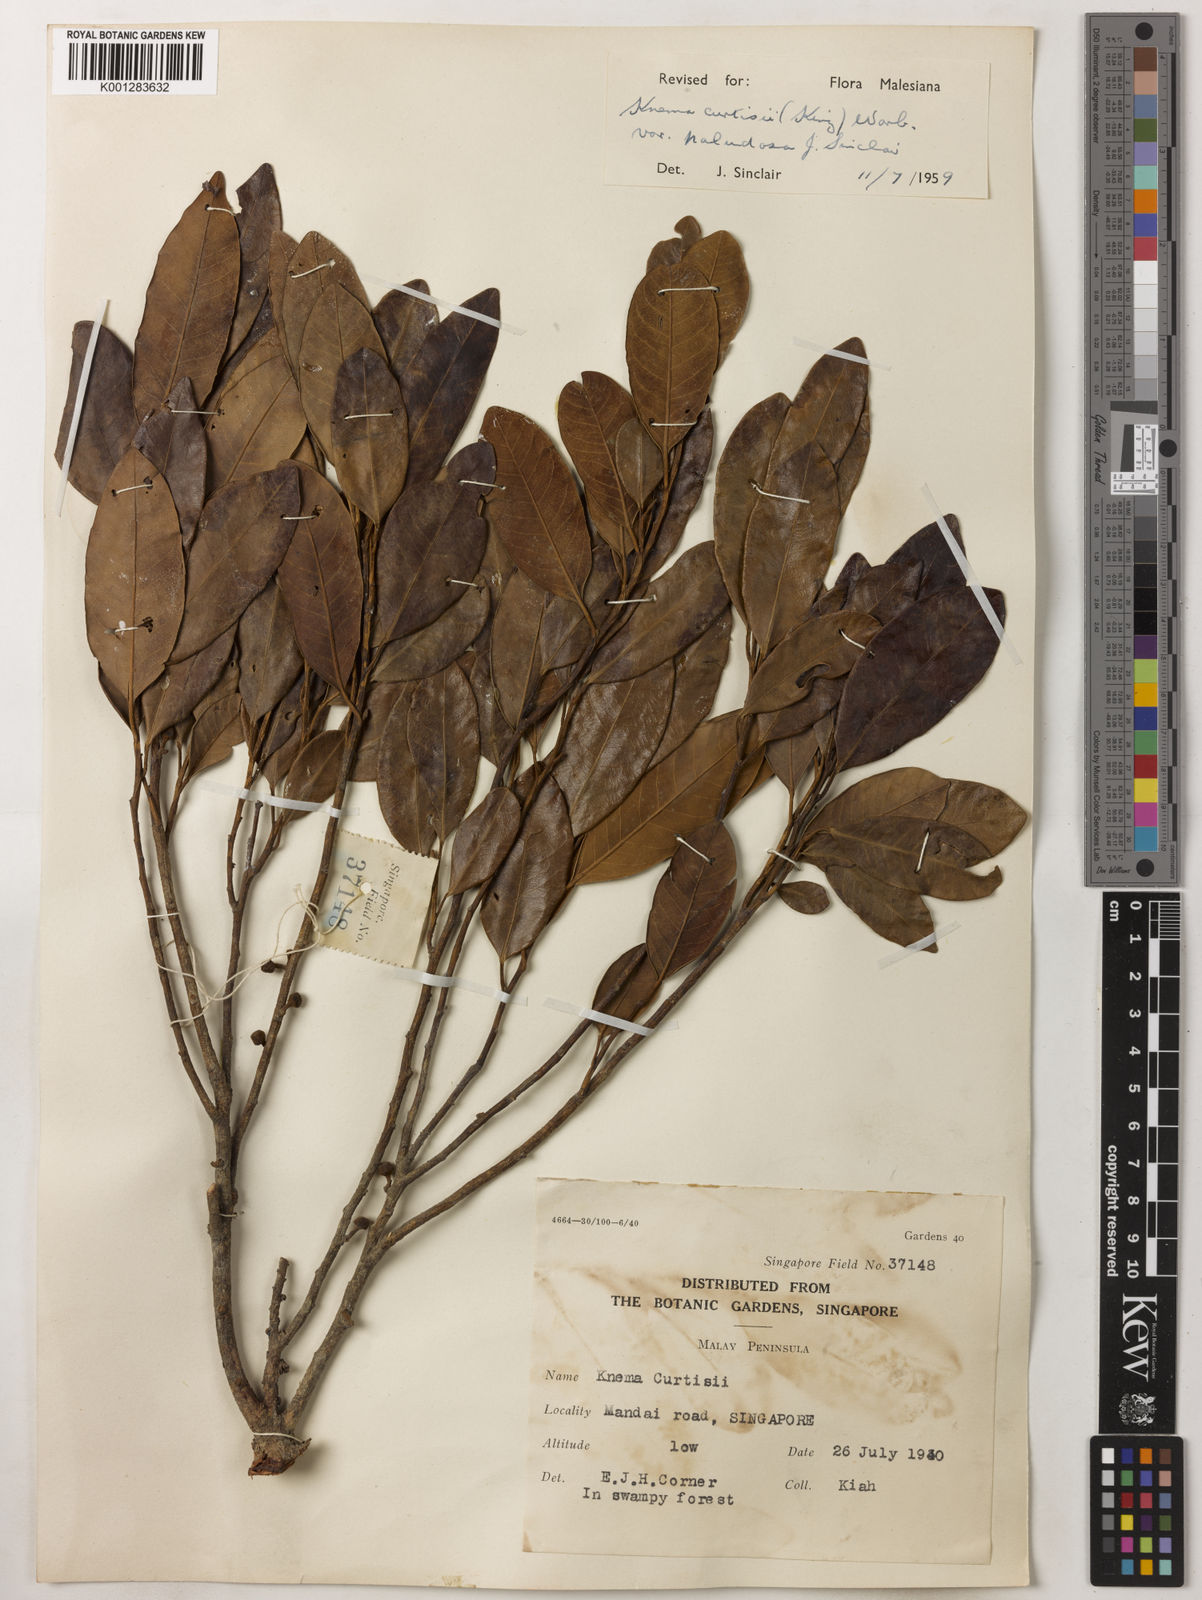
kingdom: Plantae
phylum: Tracheophyta
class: Magnoliopsida
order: Magnoliales
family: Myristicaceae
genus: Knema
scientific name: Knema curtisii
